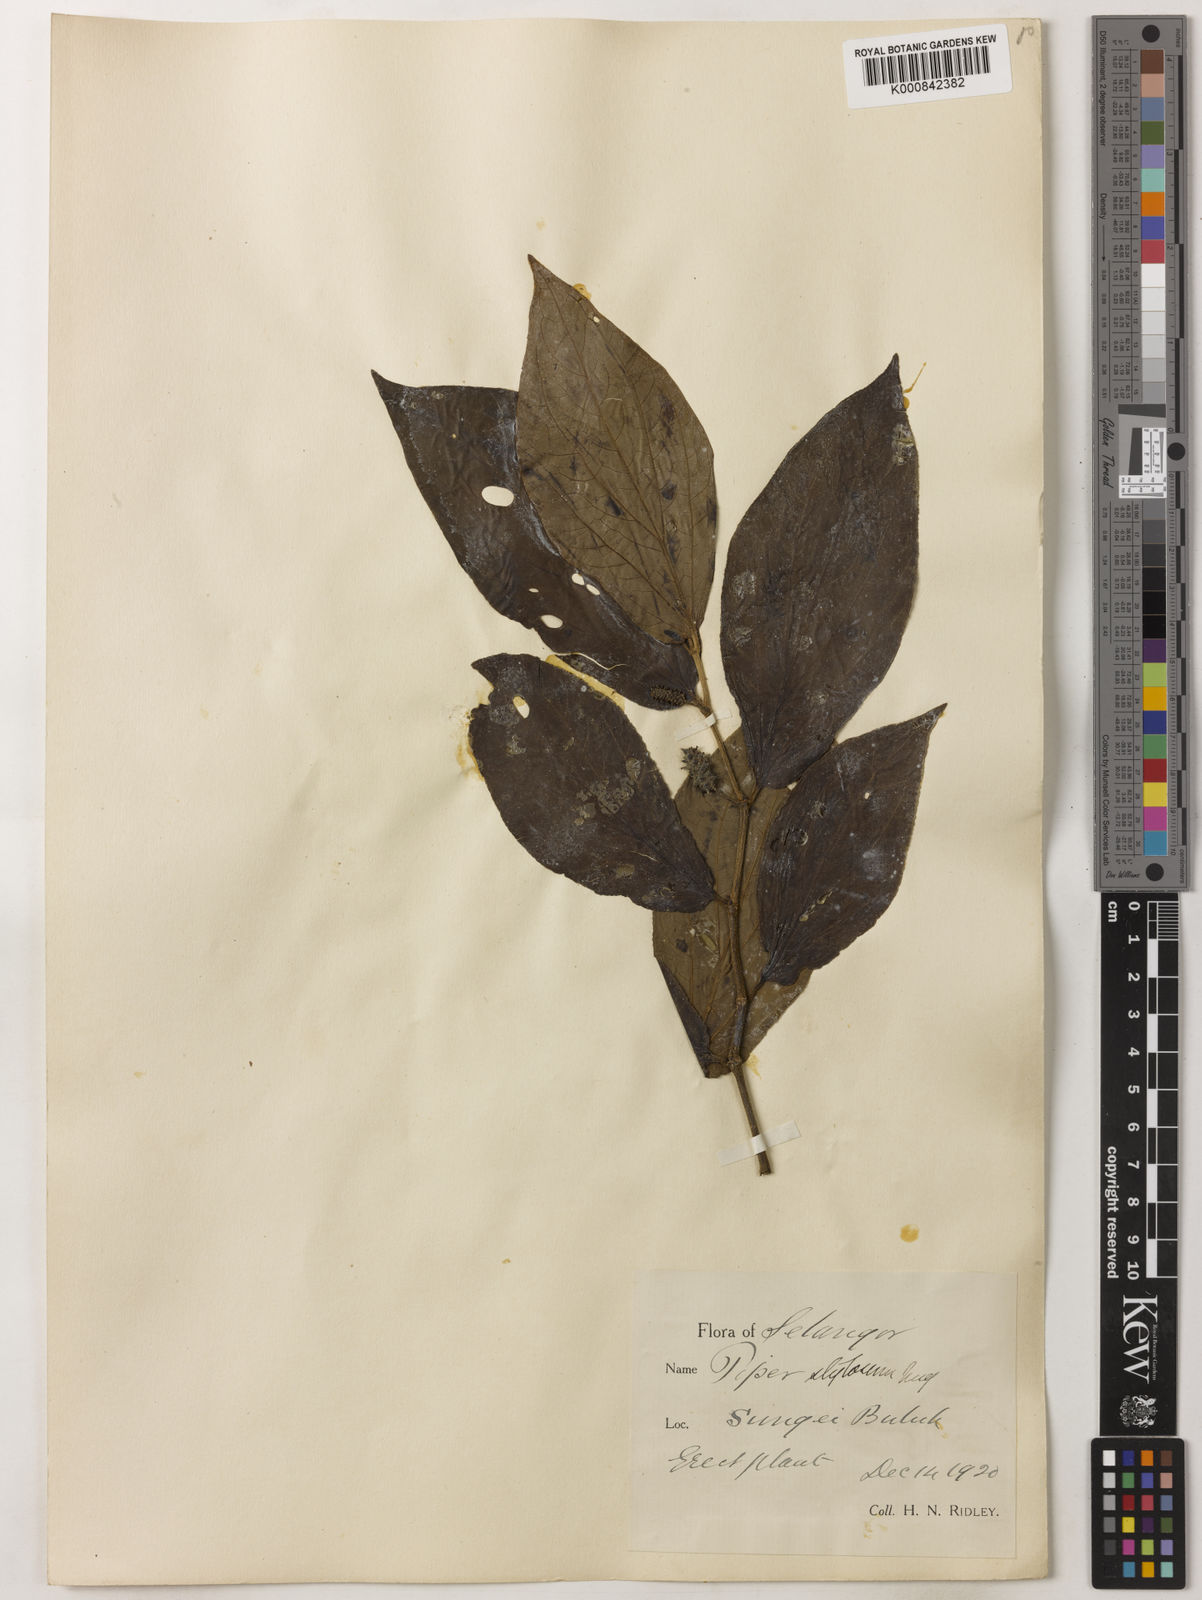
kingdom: Plantae
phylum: Tracheophyta
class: Magnoliopsida
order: Piperales
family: Piperaceae
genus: Piper
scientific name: Piper rostratum
